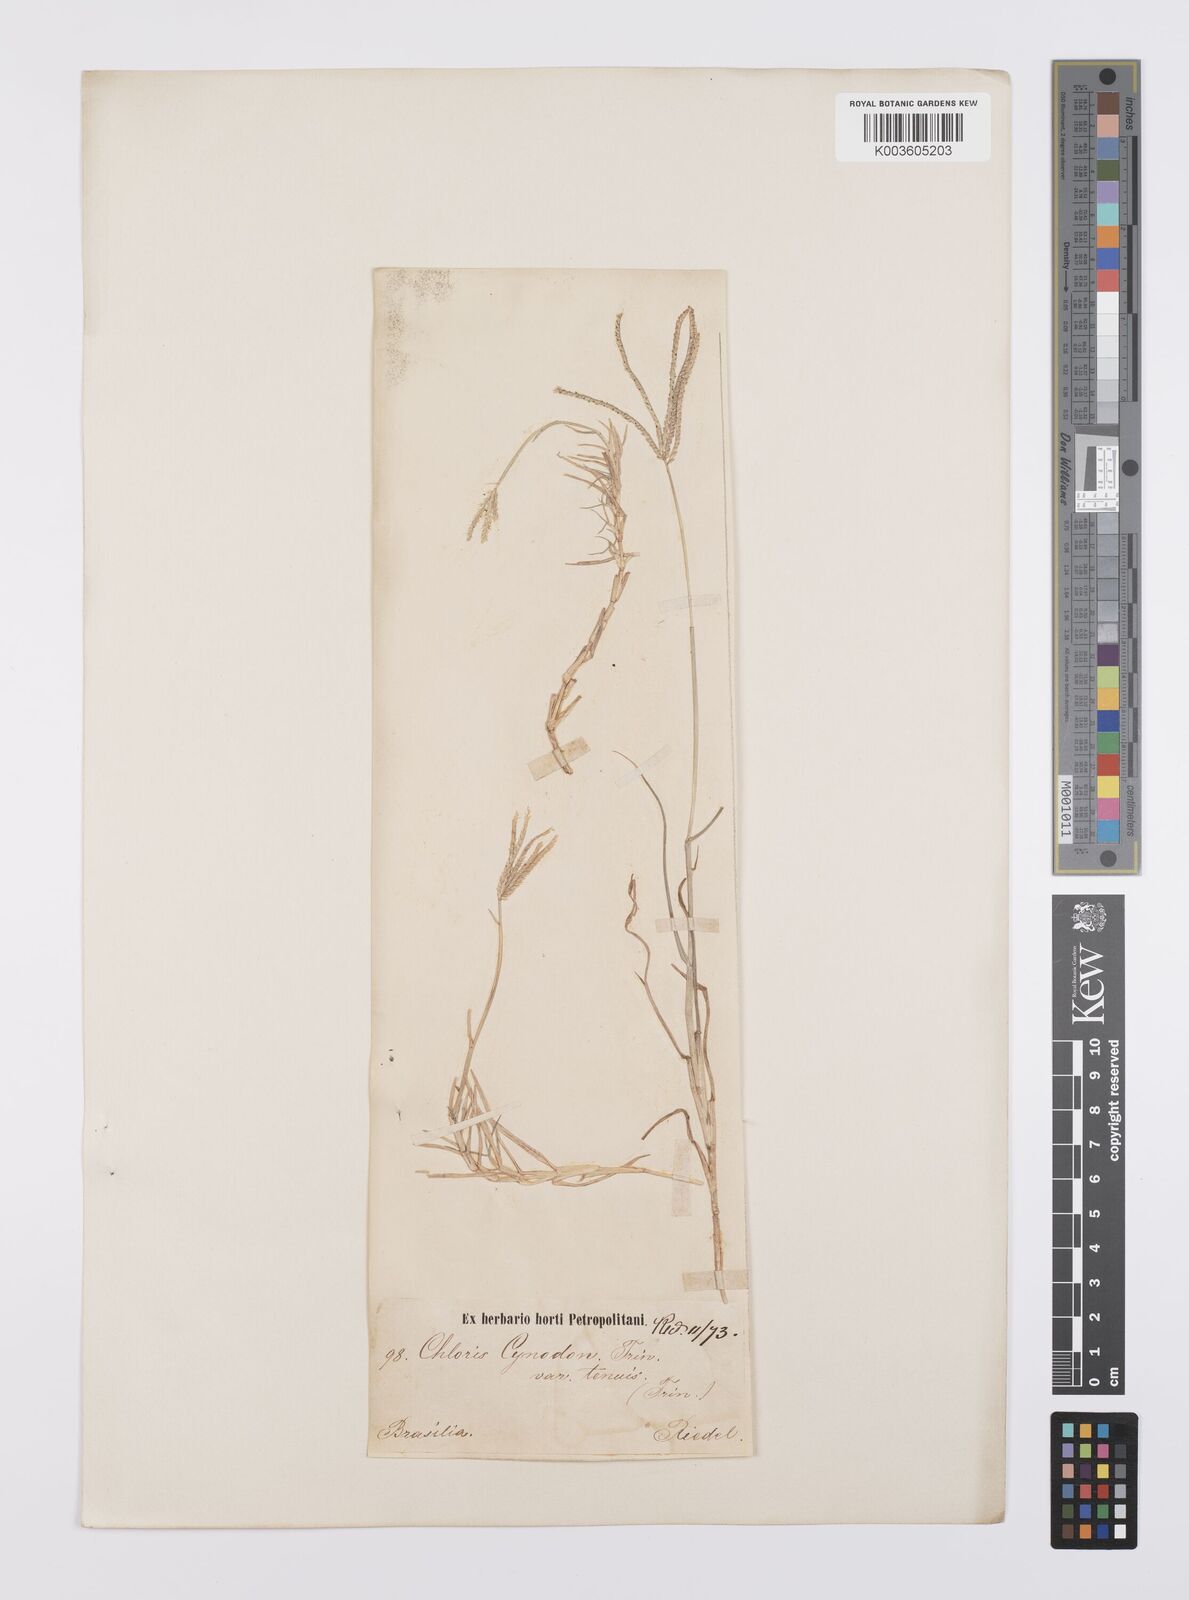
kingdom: Plantae
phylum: Tracheophyta
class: Liliopsida
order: Poales
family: Poaceae
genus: Cynodon
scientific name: Cynodon dactylon
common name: Bermuda grass
